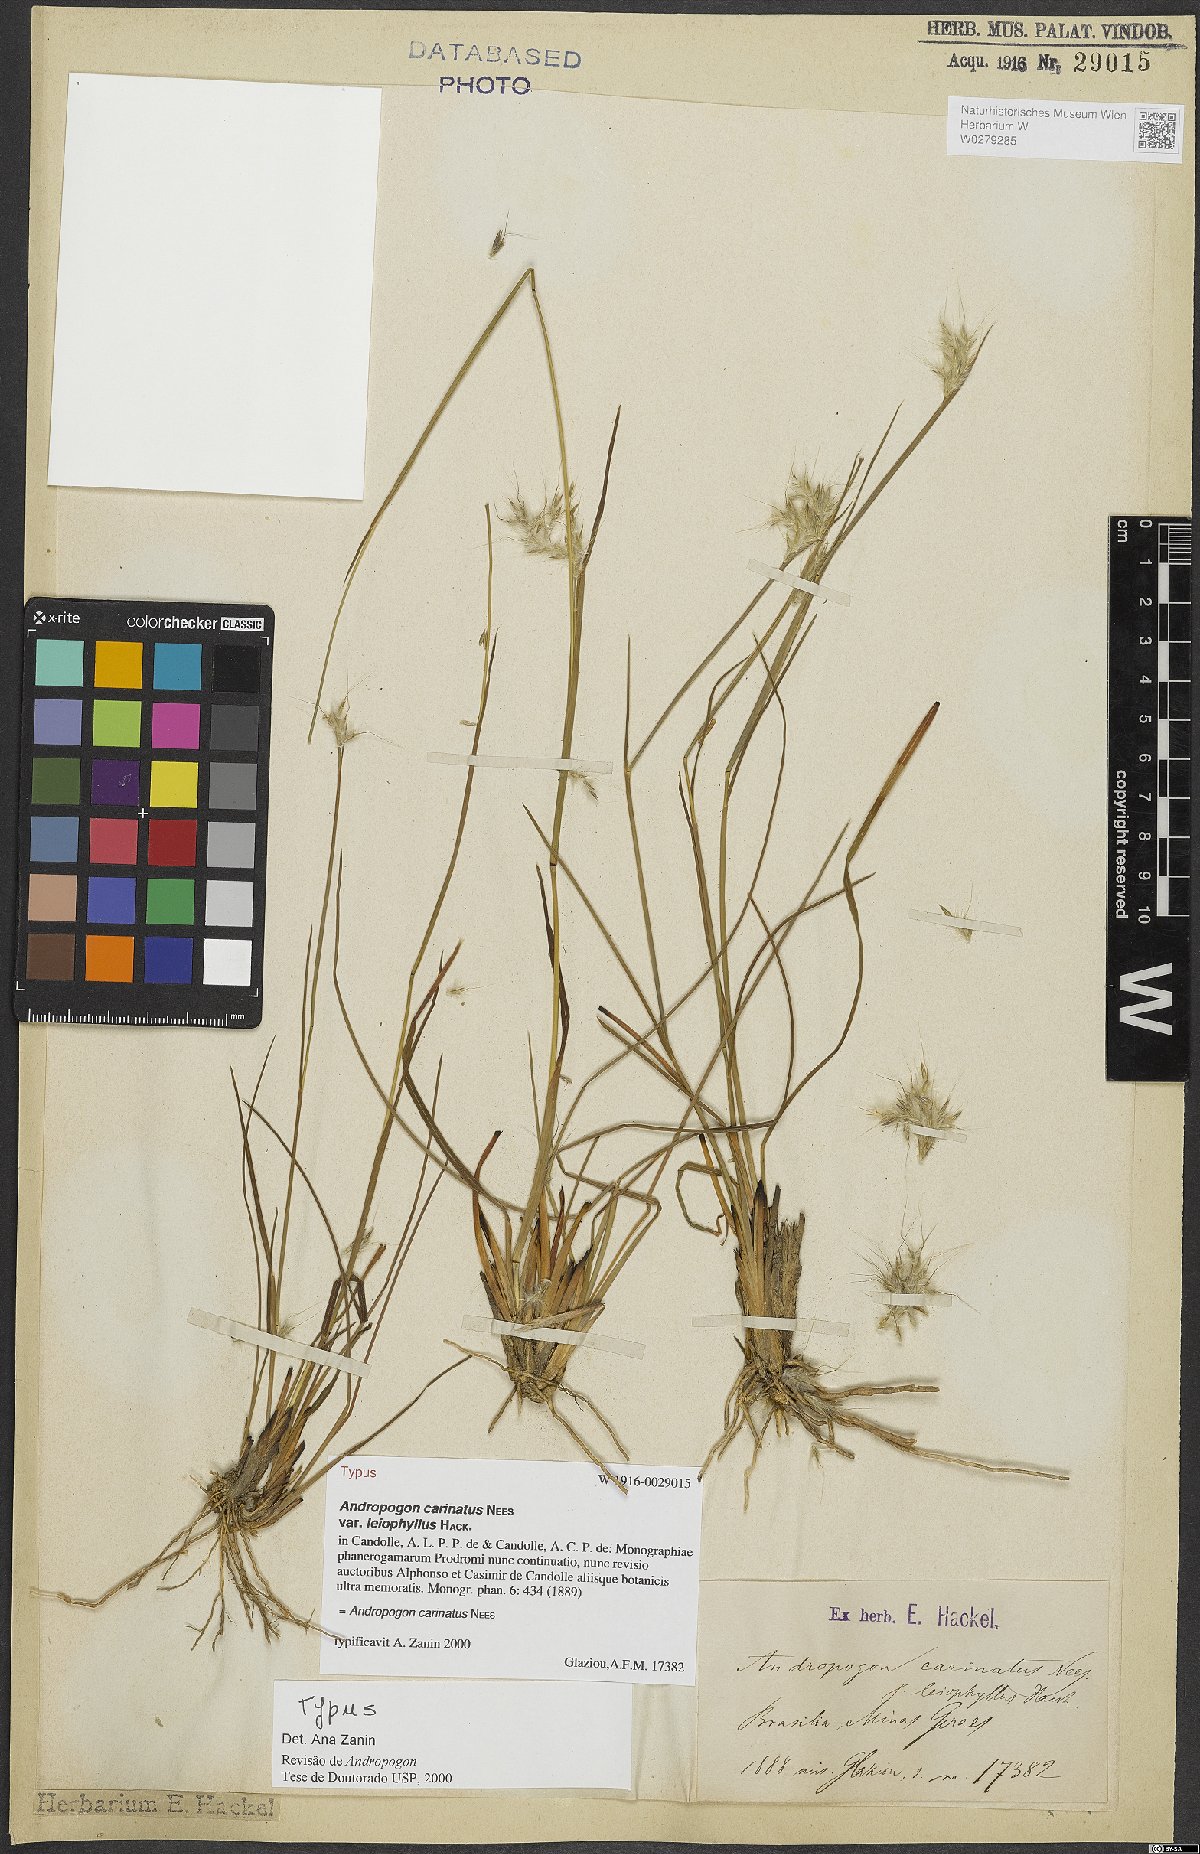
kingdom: Plantae
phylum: Tracheophyta
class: Liliopsida
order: Poales
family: Poaceae
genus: Andropogon
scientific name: Andropogon carinatus
